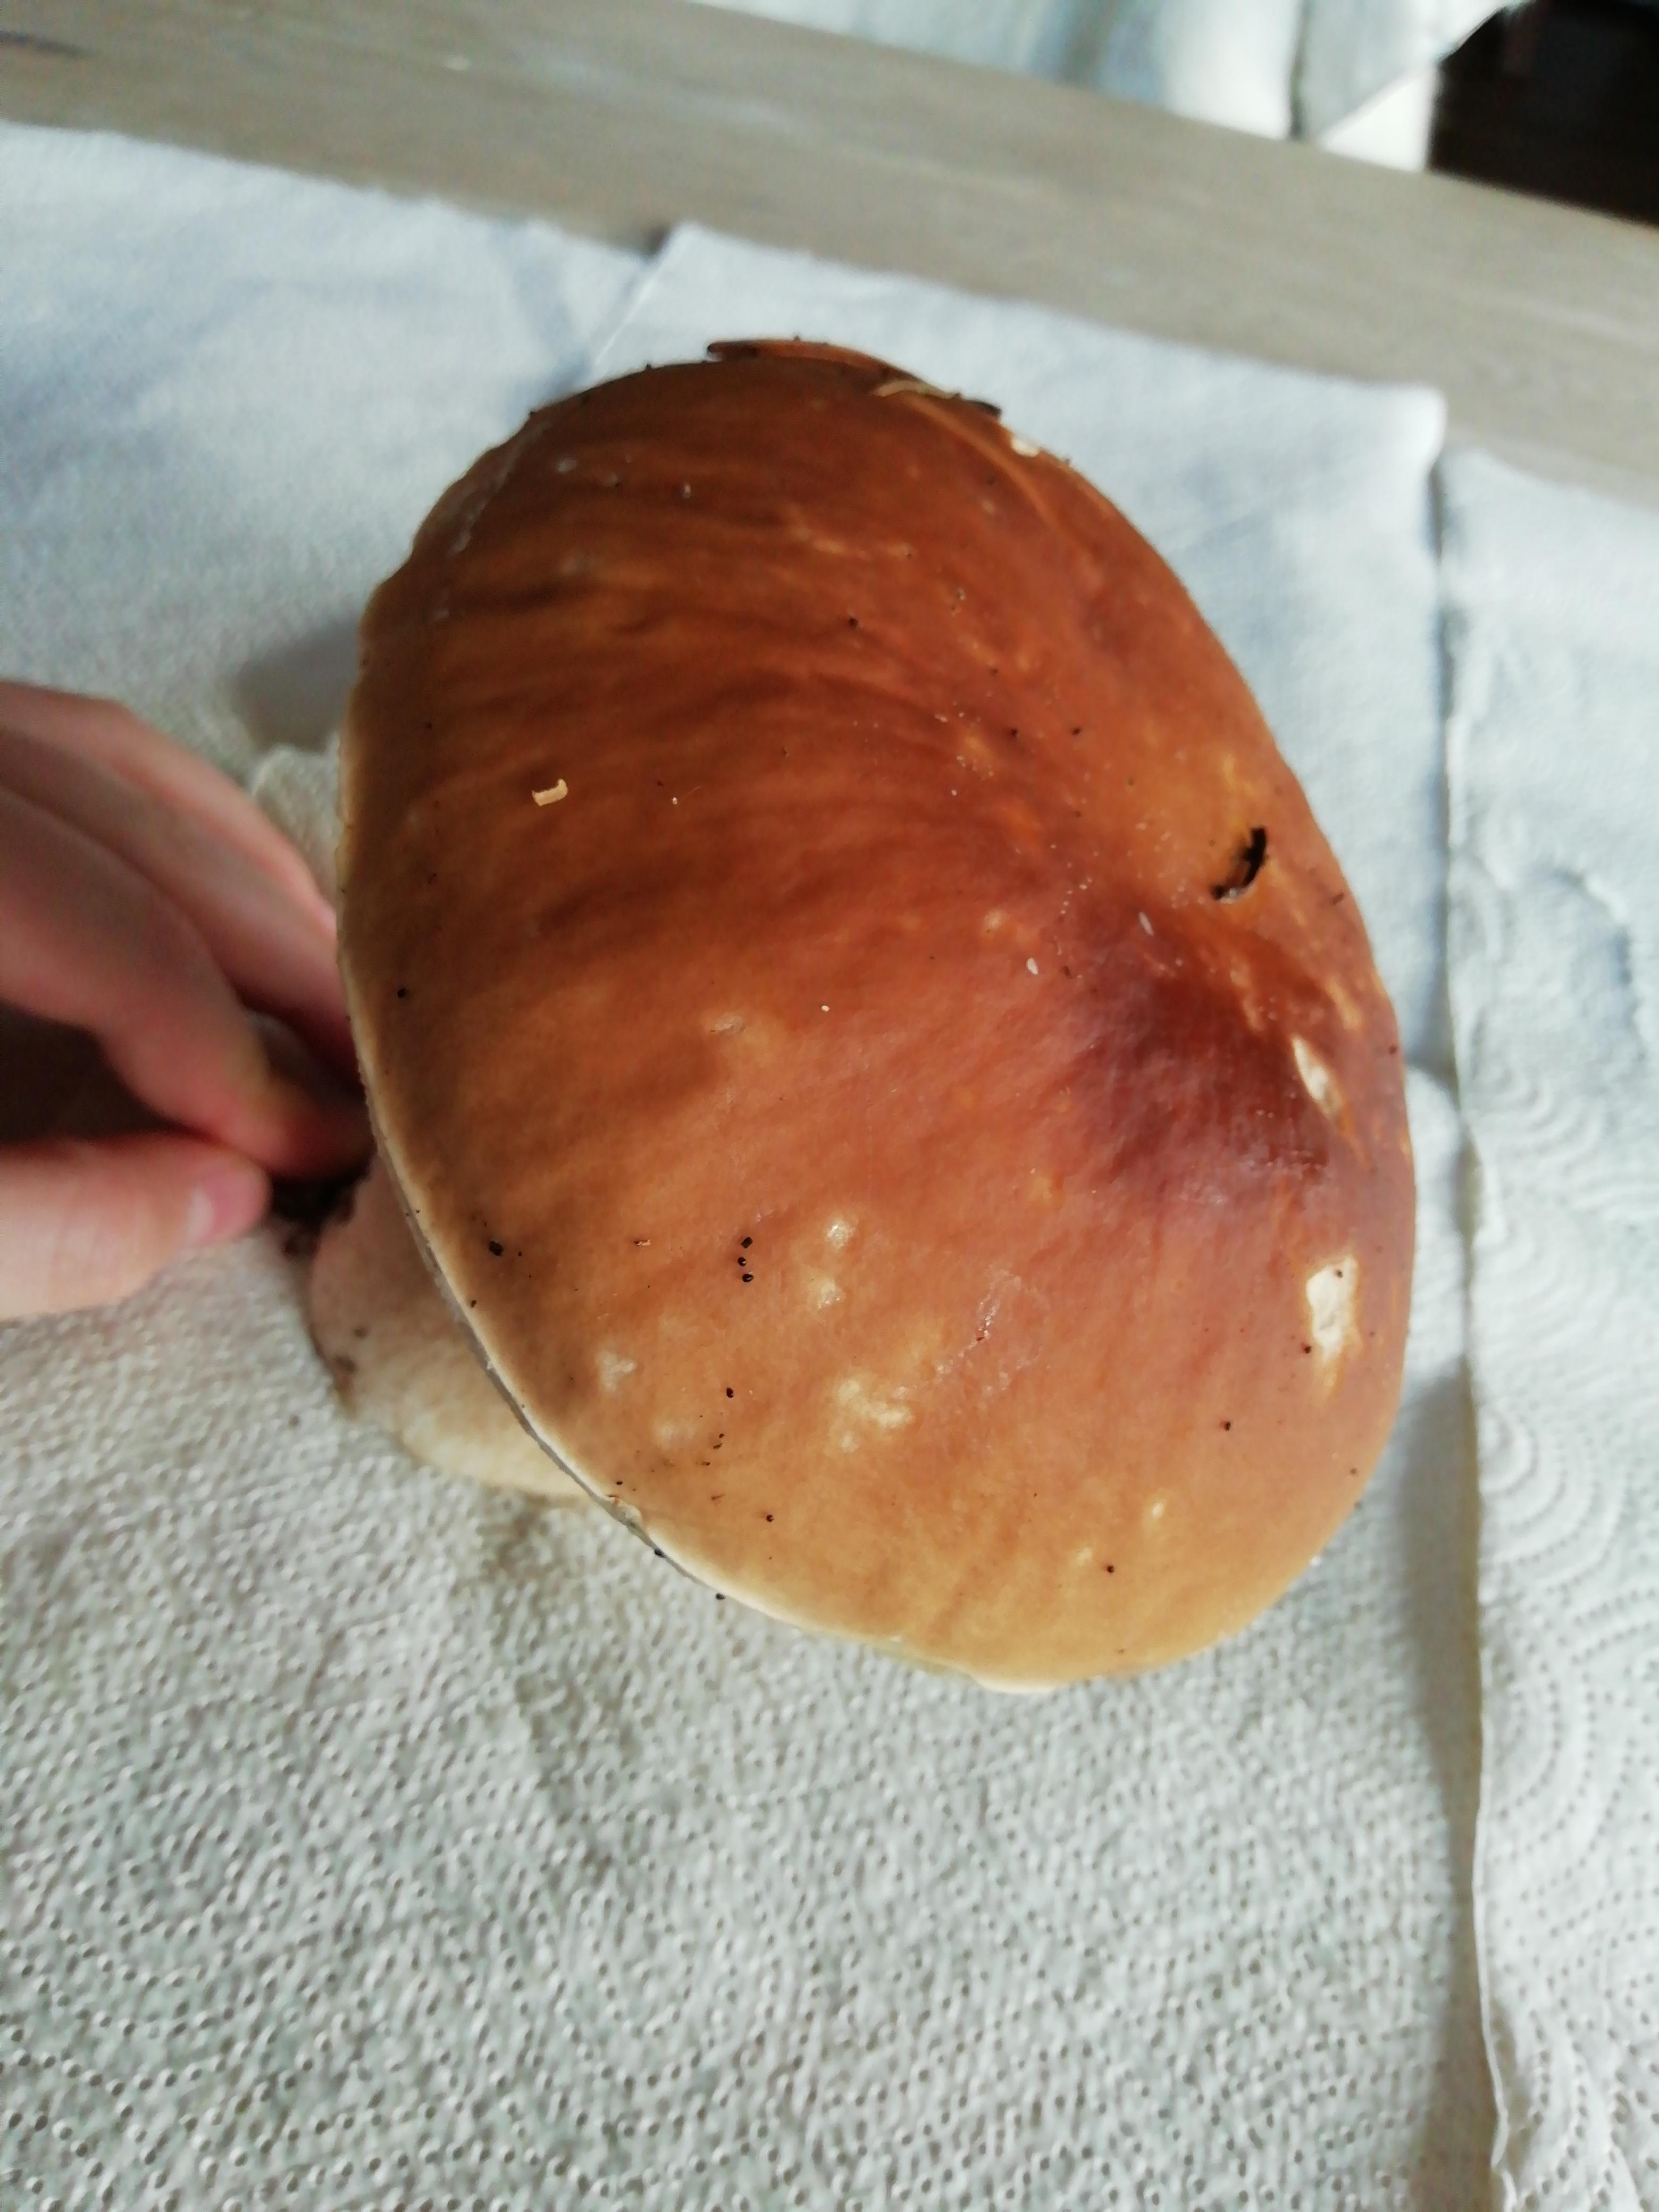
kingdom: Fungi
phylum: Basidiomycota
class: Agaricomycetes
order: Boletales
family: Boletaceae
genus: Boletus
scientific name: Boletus edulis
